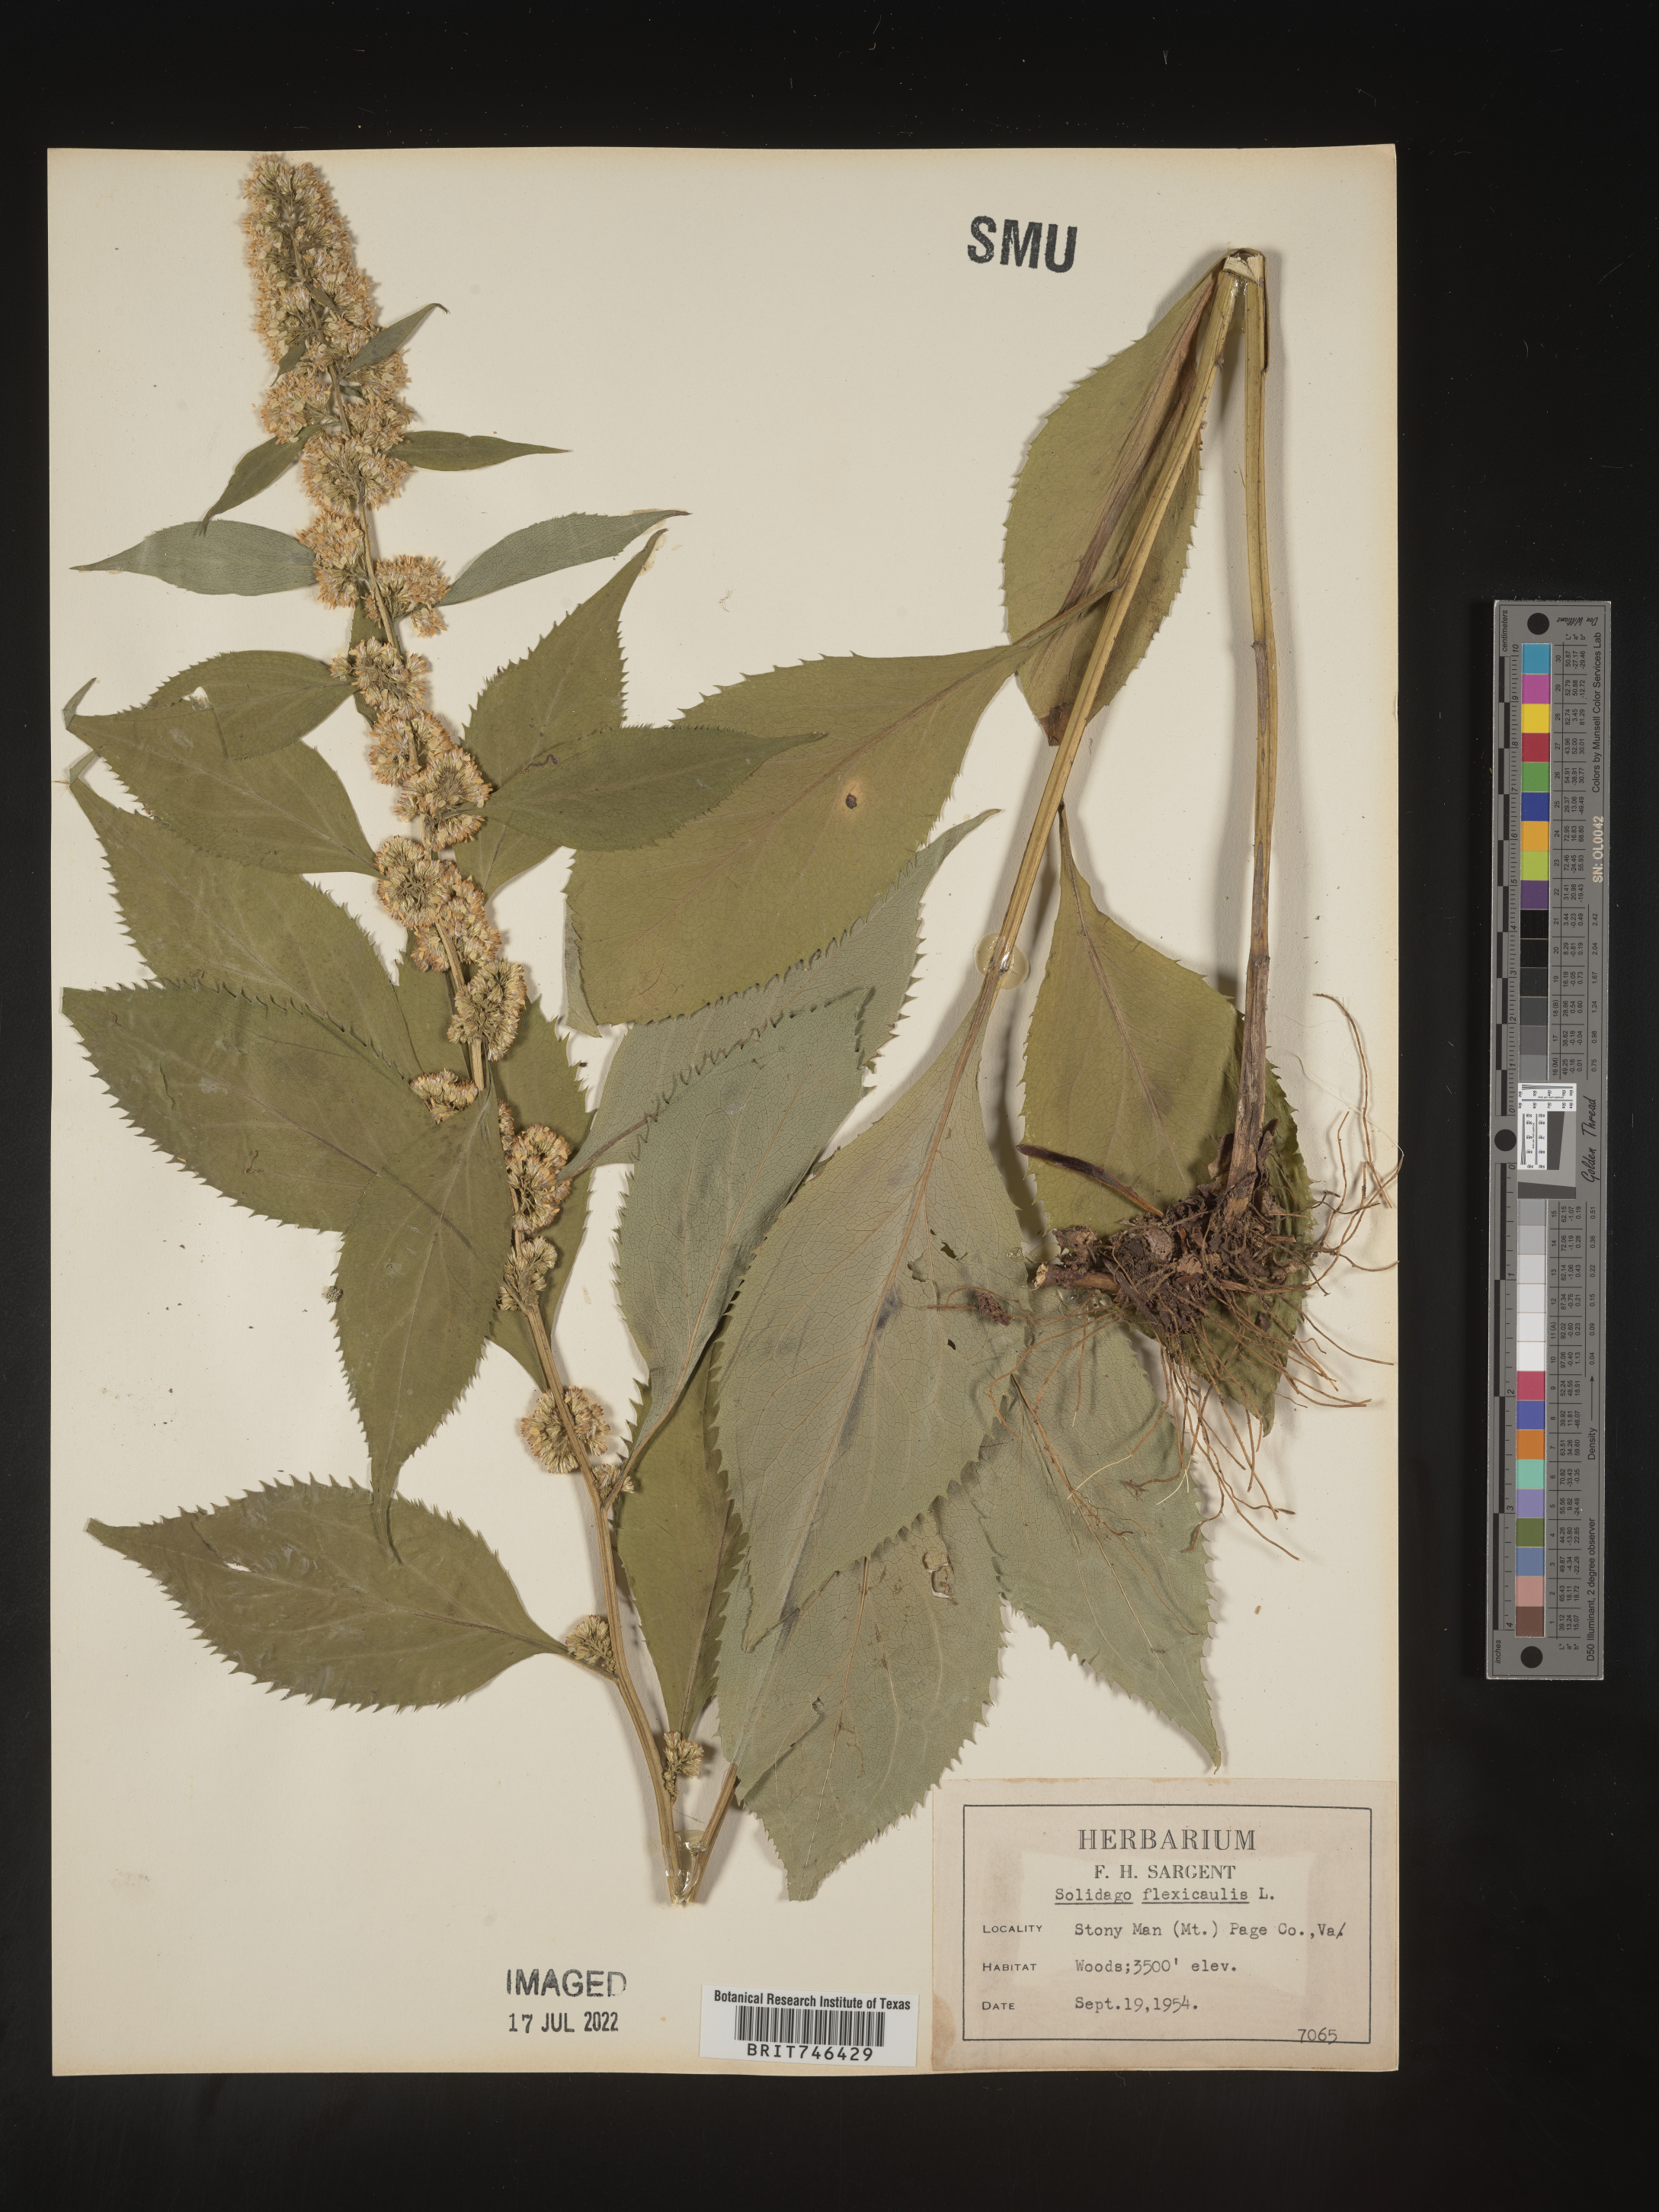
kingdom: Plantae
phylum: Tracheophyta
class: Magnoliopsida
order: Asterales
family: Asteraceae
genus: Solidago
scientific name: Solidago flaccidifolia
